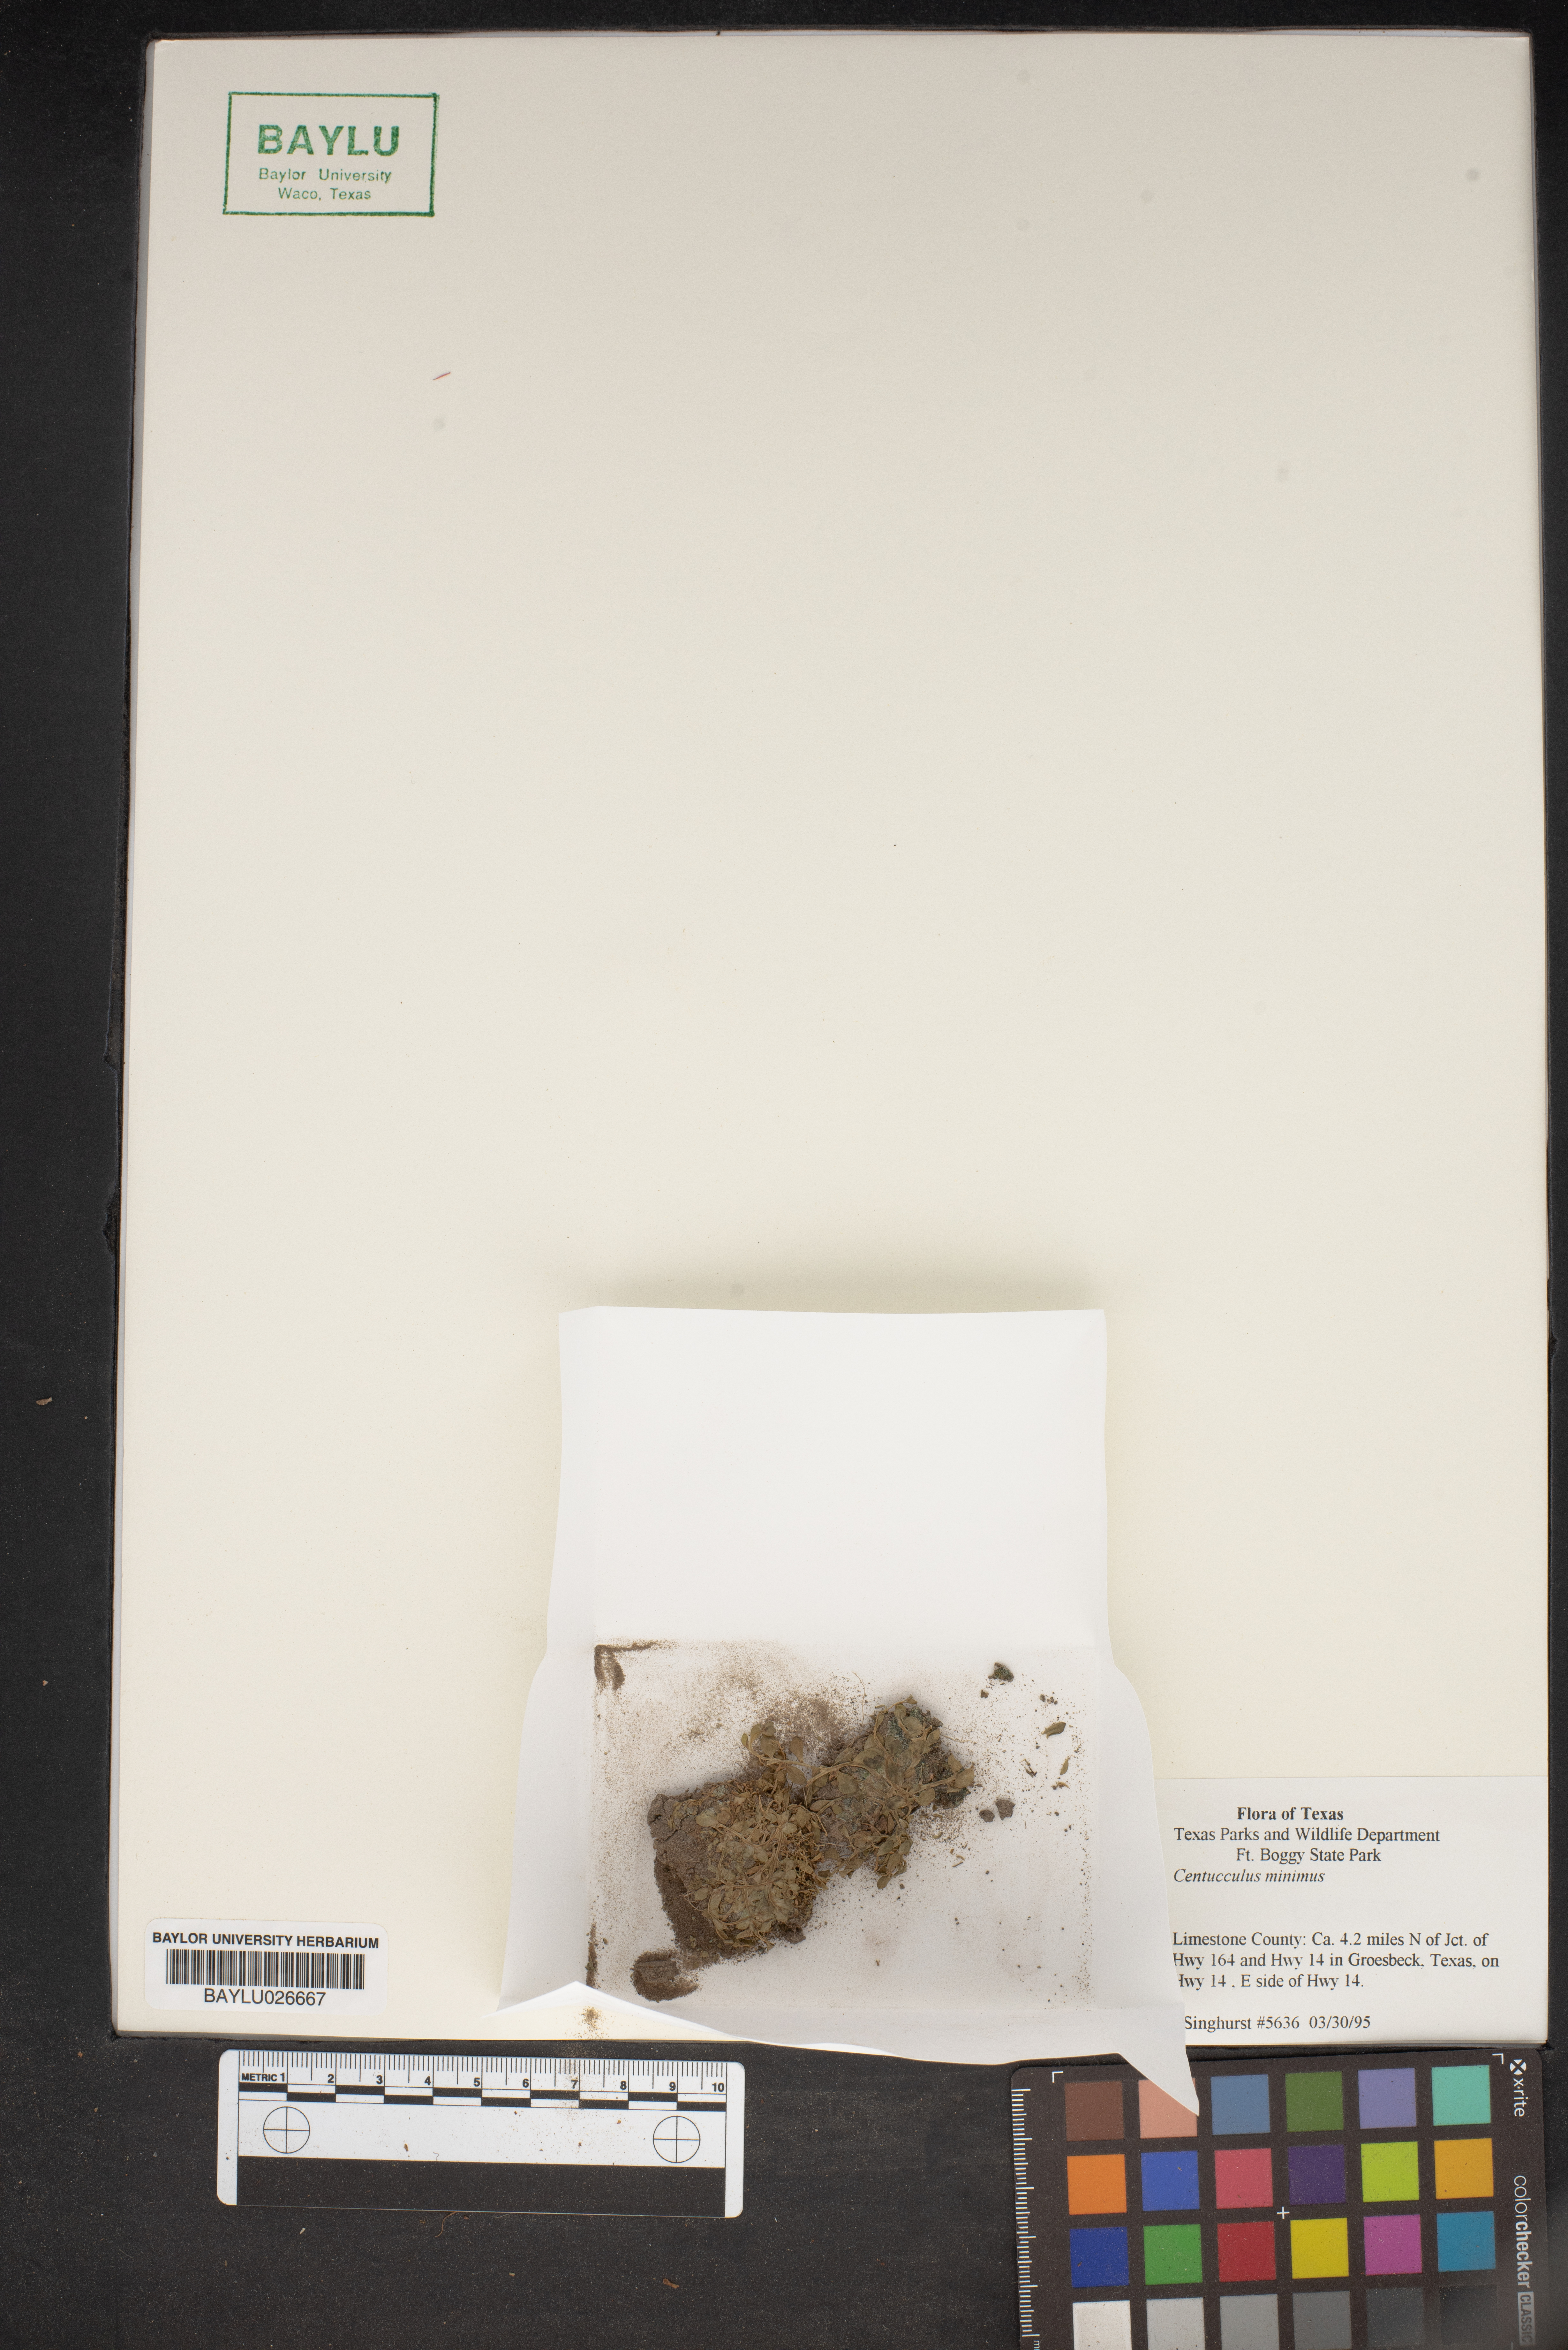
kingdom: Plantae
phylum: Tracheophyta
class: Magnoliopsida
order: Ericales
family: Primulaceae
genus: Lysimachia
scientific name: Lysimachia minima
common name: Chaffweed
